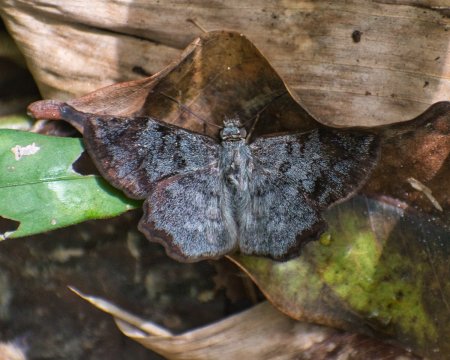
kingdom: Animalia
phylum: Arthropoda
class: Insecta
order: Lepidoptera
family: Hesperiidae
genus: Antigonus
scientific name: Antigonus erosus
